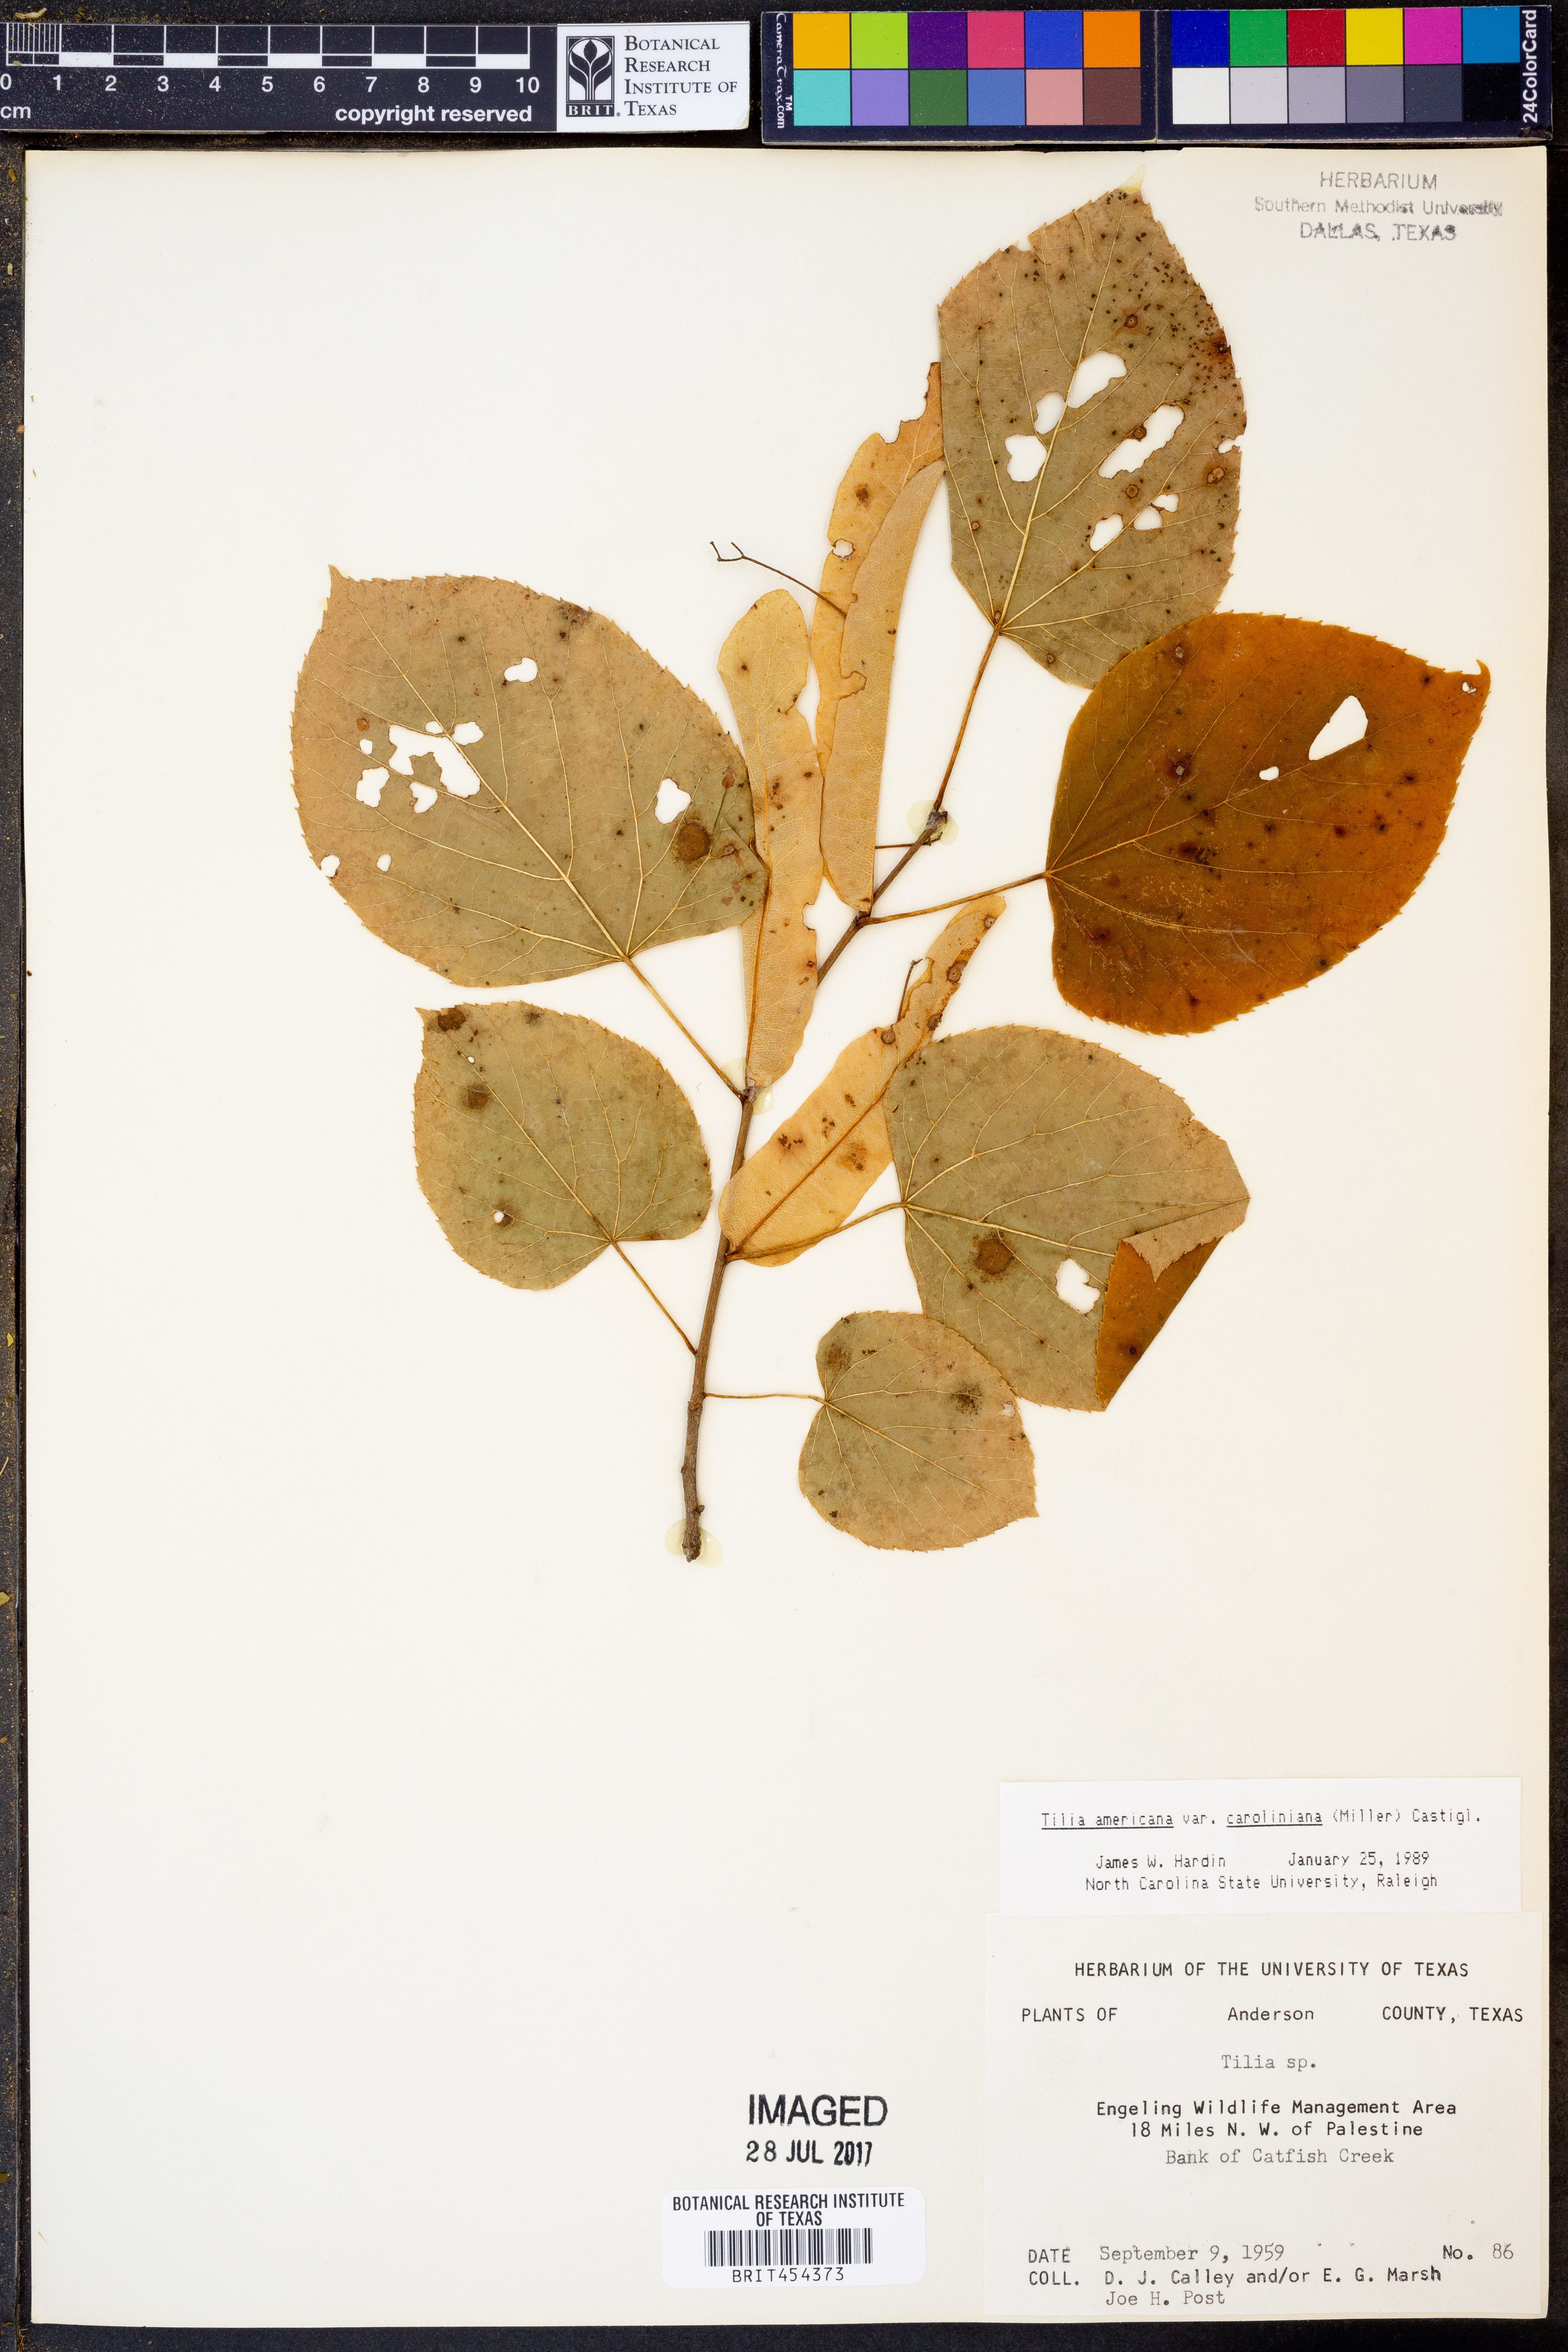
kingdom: Plantae
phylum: Tracheophyta
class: Magnoliopsida
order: Malvales
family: Malvaceae
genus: Tilia
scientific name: Tilia americana
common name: Basswood
